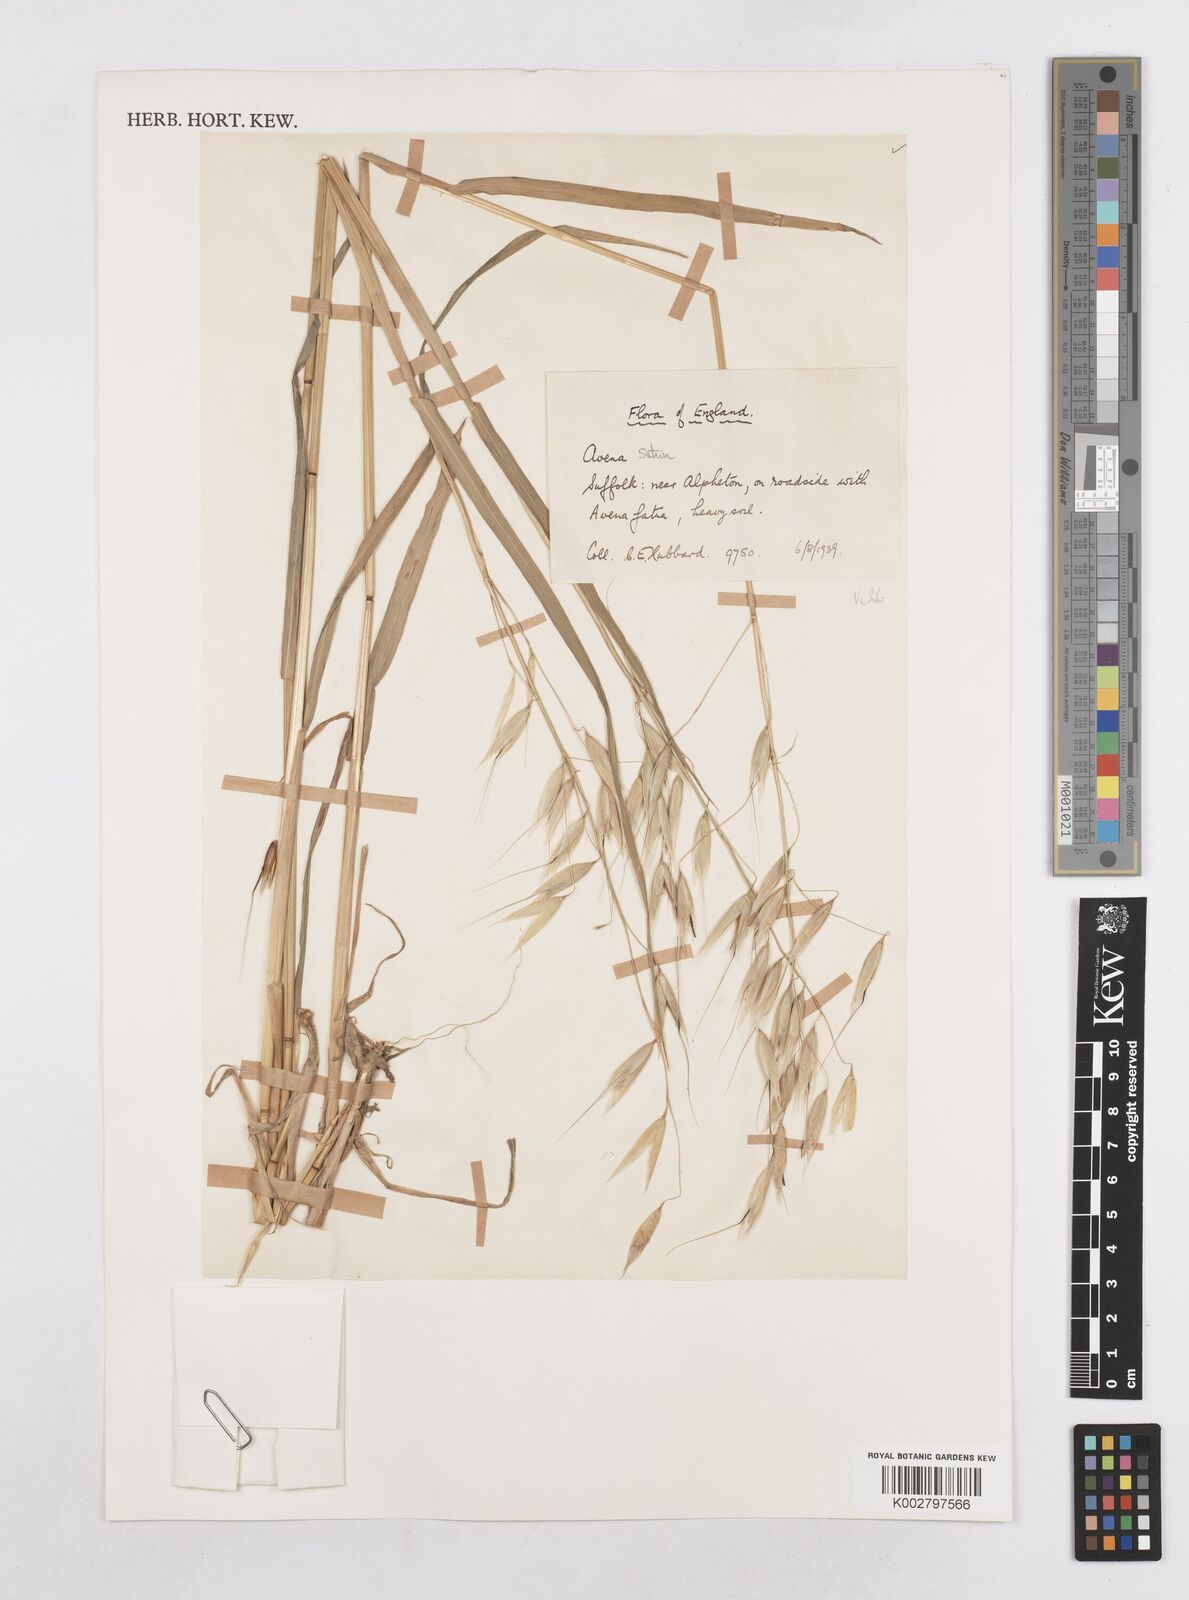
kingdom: Plantae
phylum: Tracheophyta
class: Liliopsida
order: Poales
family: Poaceae
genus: Avena
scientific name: Avena sativa
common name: Oat
